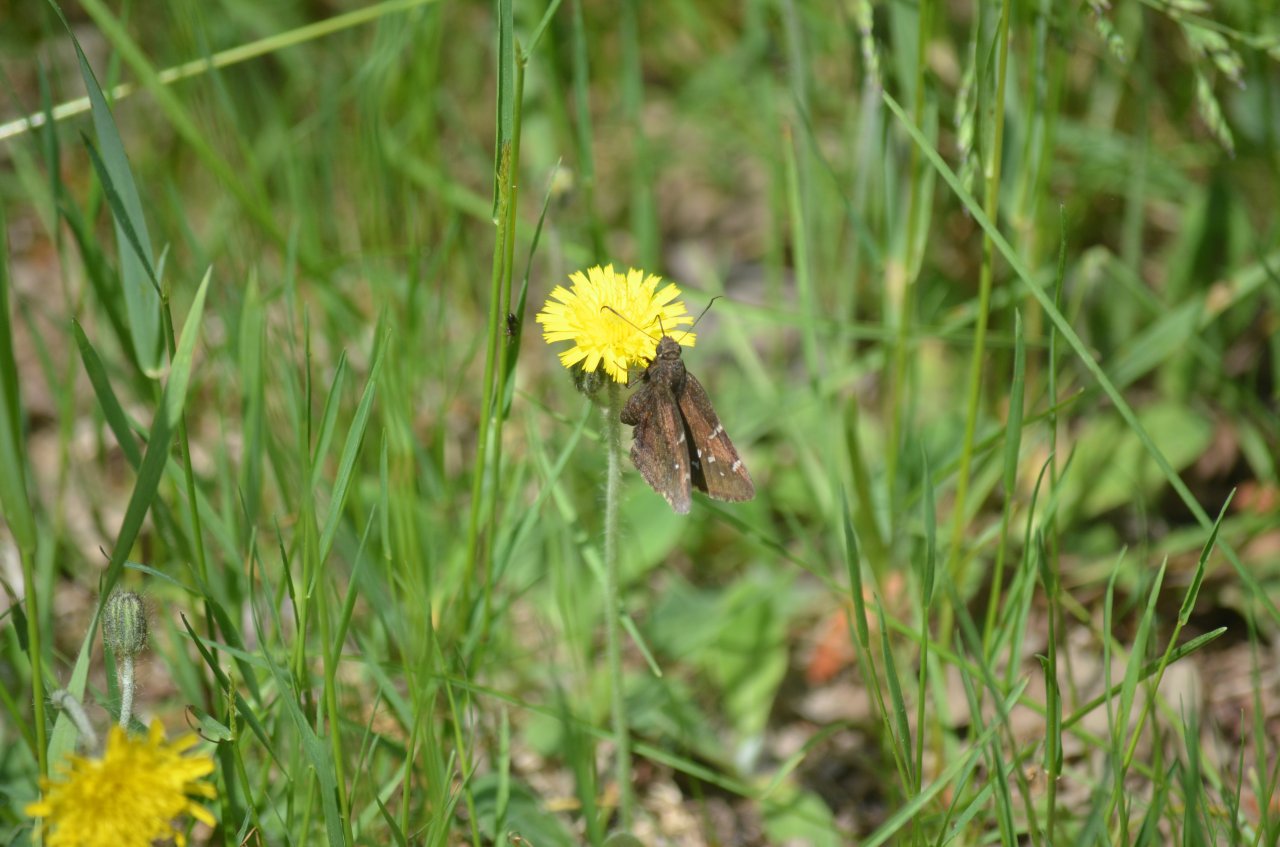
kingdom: Animalia
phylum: Arthropoda
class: Insecta
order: Lepidoptera
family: Hesperiidae
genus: Autochton
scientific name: Autochton
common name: Northern Cloudywing
